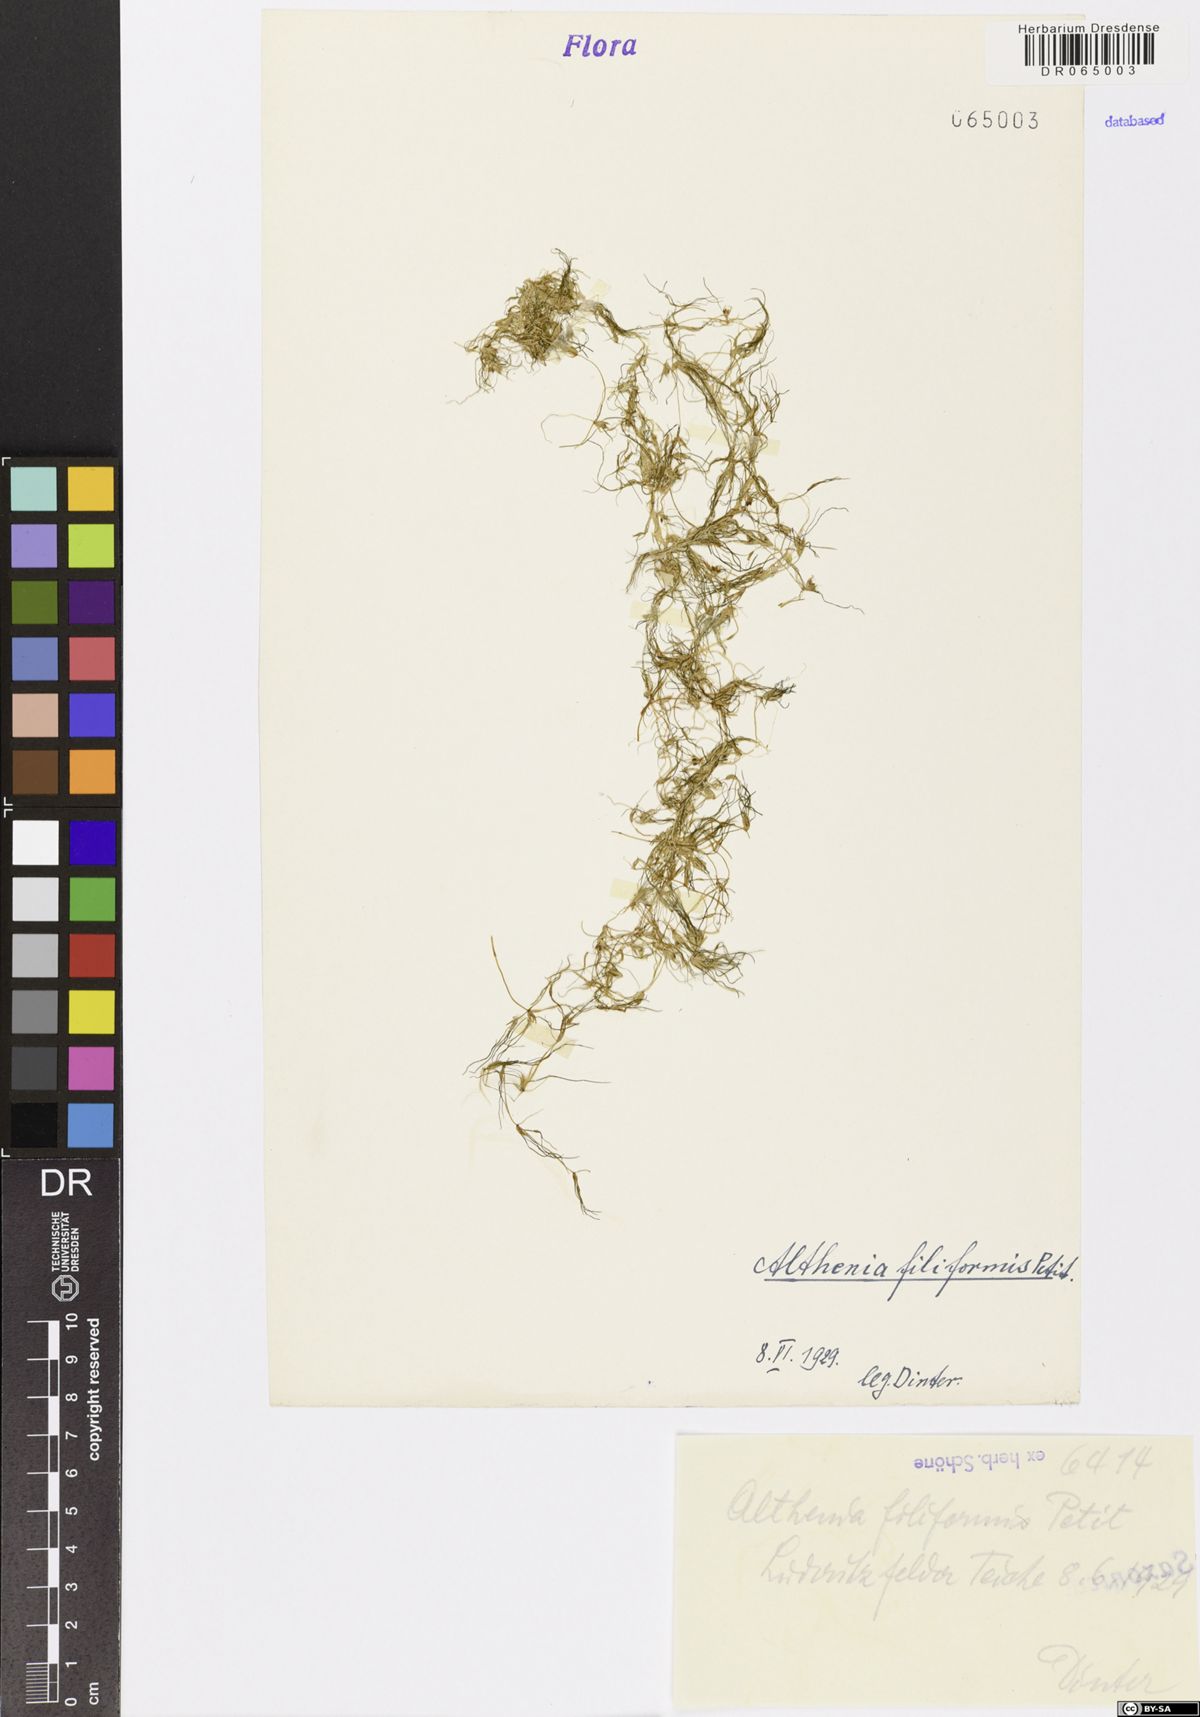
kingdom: Plantae
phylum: Tracheophyta
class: Liliopsida
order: Alismatales
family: Potamogetonaceae
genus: Althenia
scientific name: Althenia filiformis
